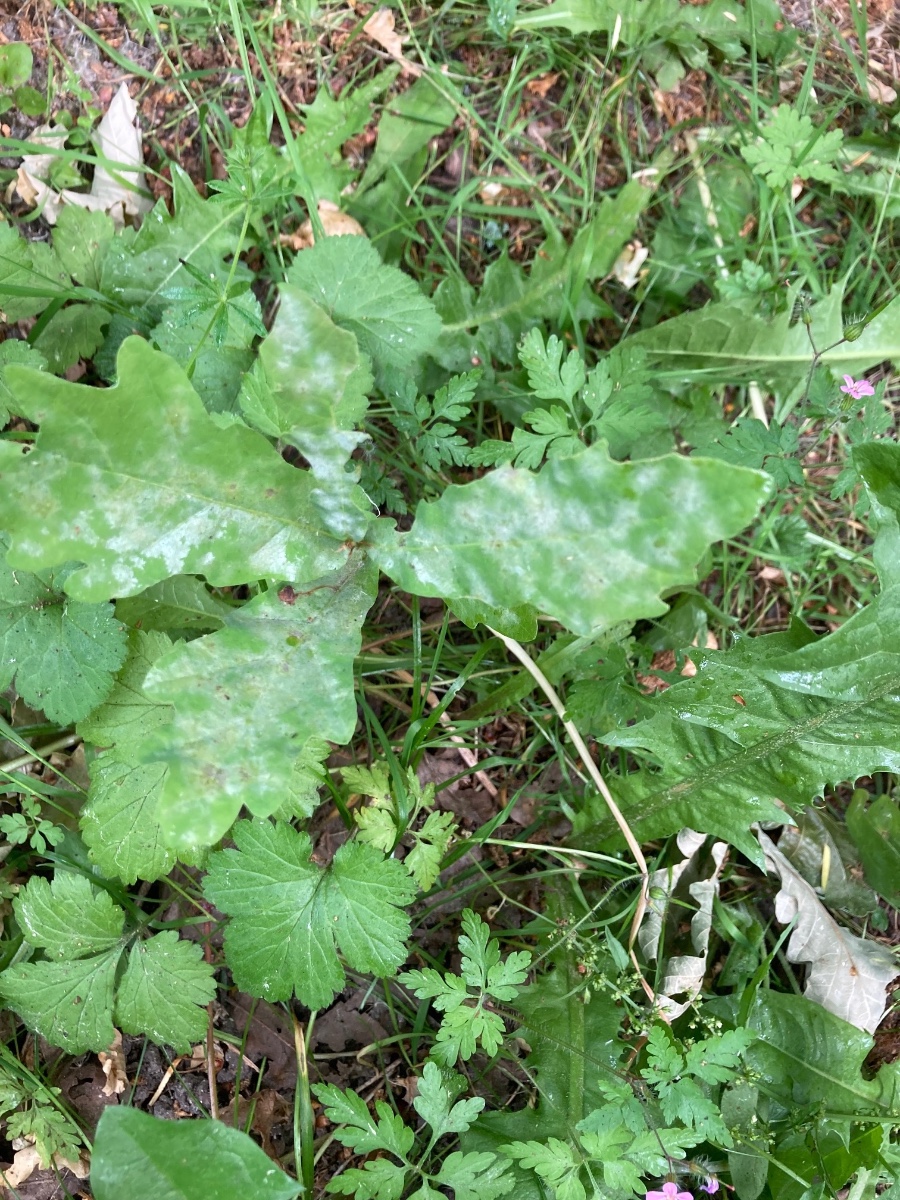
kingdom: Fungi
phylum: Ascomycota
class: Leotiomycetes
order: Helotiales
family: Erysiphaceae
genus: Erysiphe
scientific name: Erysiphe alphitoides
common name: ege-meldug
